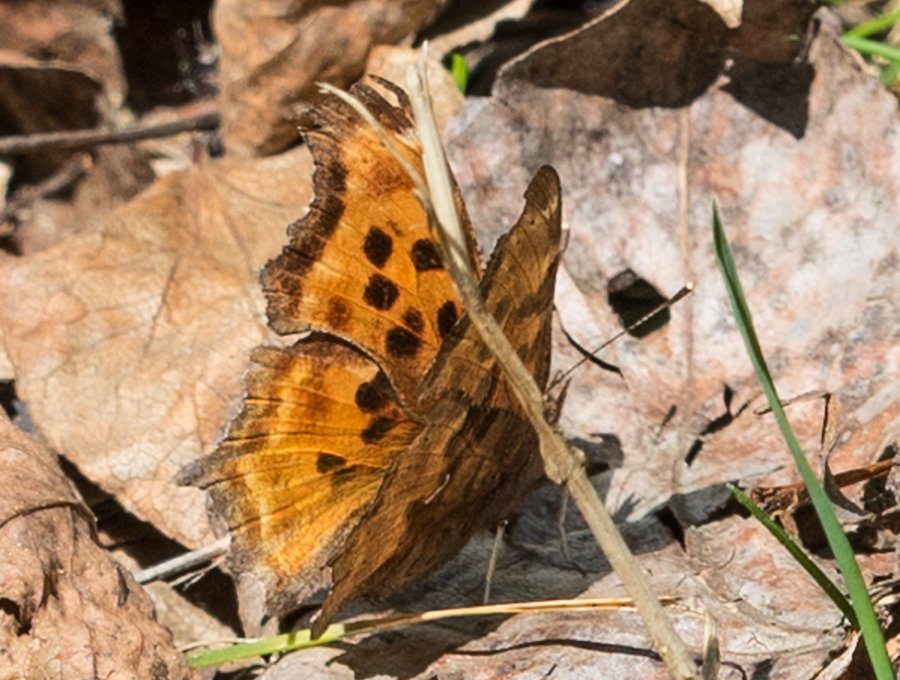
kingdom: Animalia
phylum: Arthropoda
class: Insecta
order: Lepidoptera
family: Nymphalidae
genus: Polygonia
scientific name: Polygonia satyrus
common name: Satyr Comma
